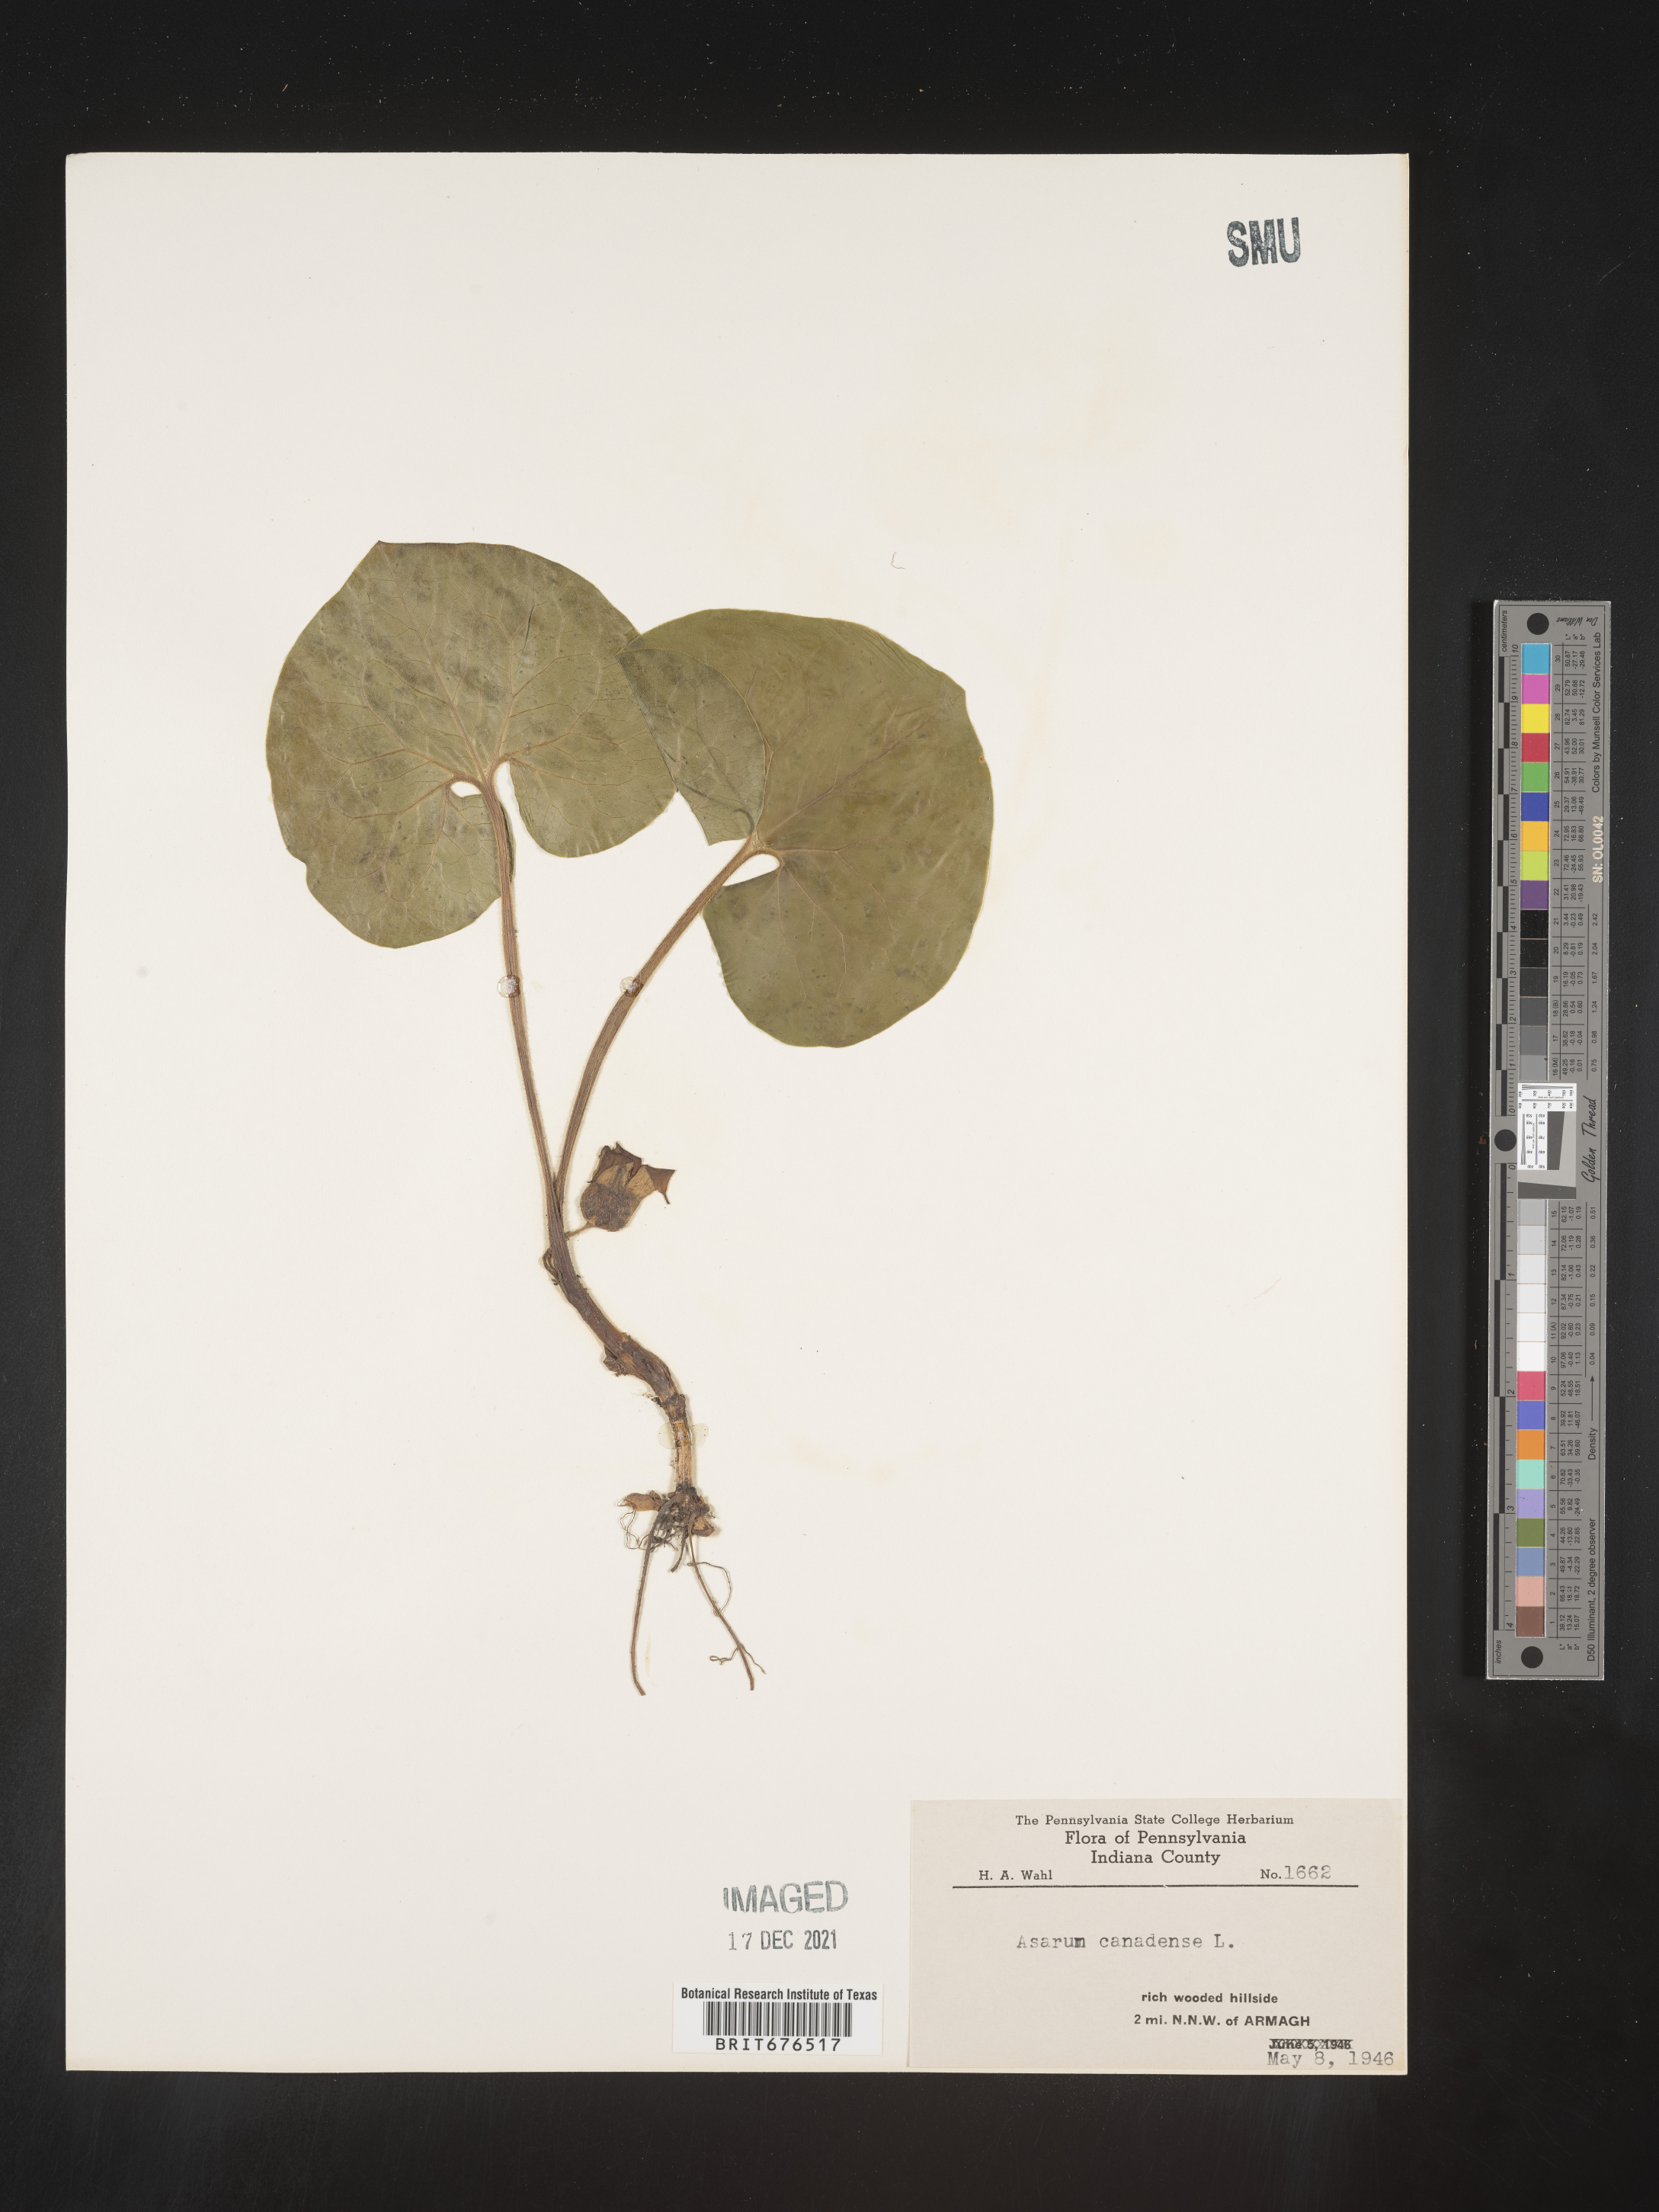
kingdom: Plantae
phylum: Tracheophyta
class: Magnoliopsida
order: Piperales
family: Aristolochiaceae
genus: Asarum
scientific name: Asarum canadense
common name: Wild ginger
